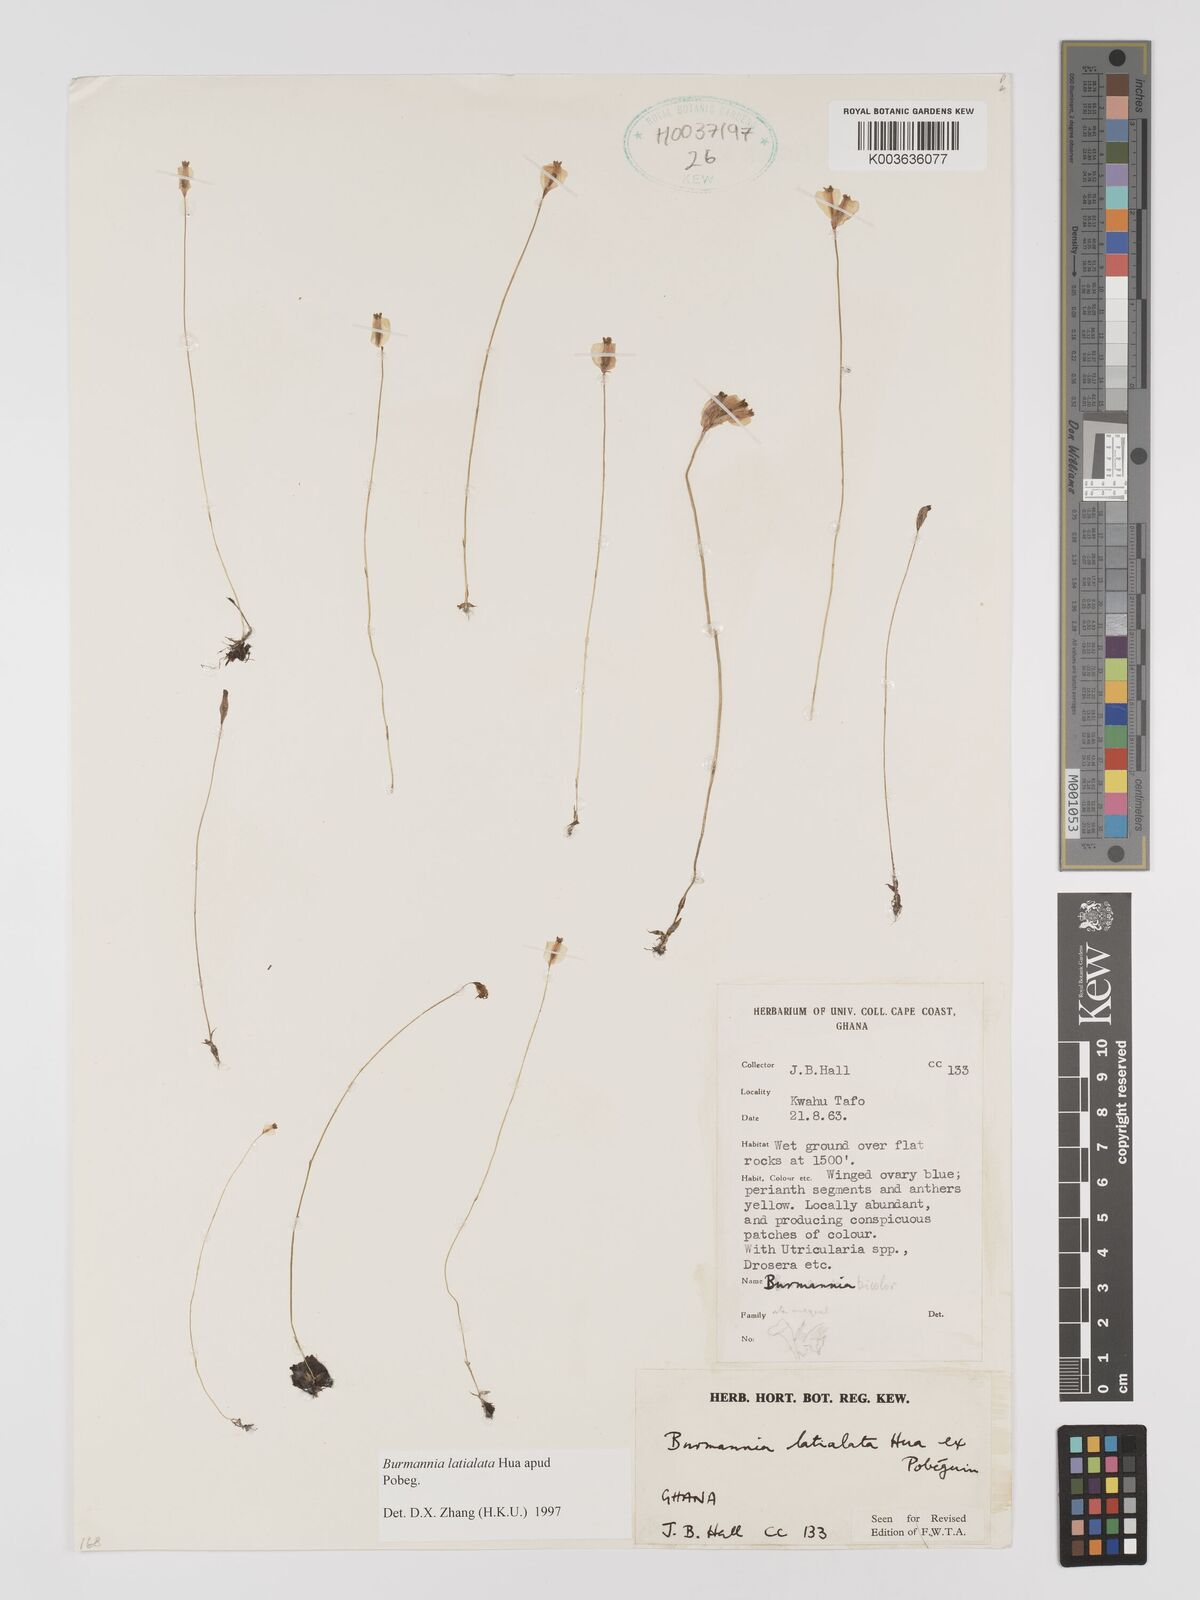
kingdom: Plantae
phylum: Tracheophyta
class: Liliopsida
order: Dioscoreales
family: Burmanniaceae
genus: Burmannia
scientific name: Burmannia madagascariensis
